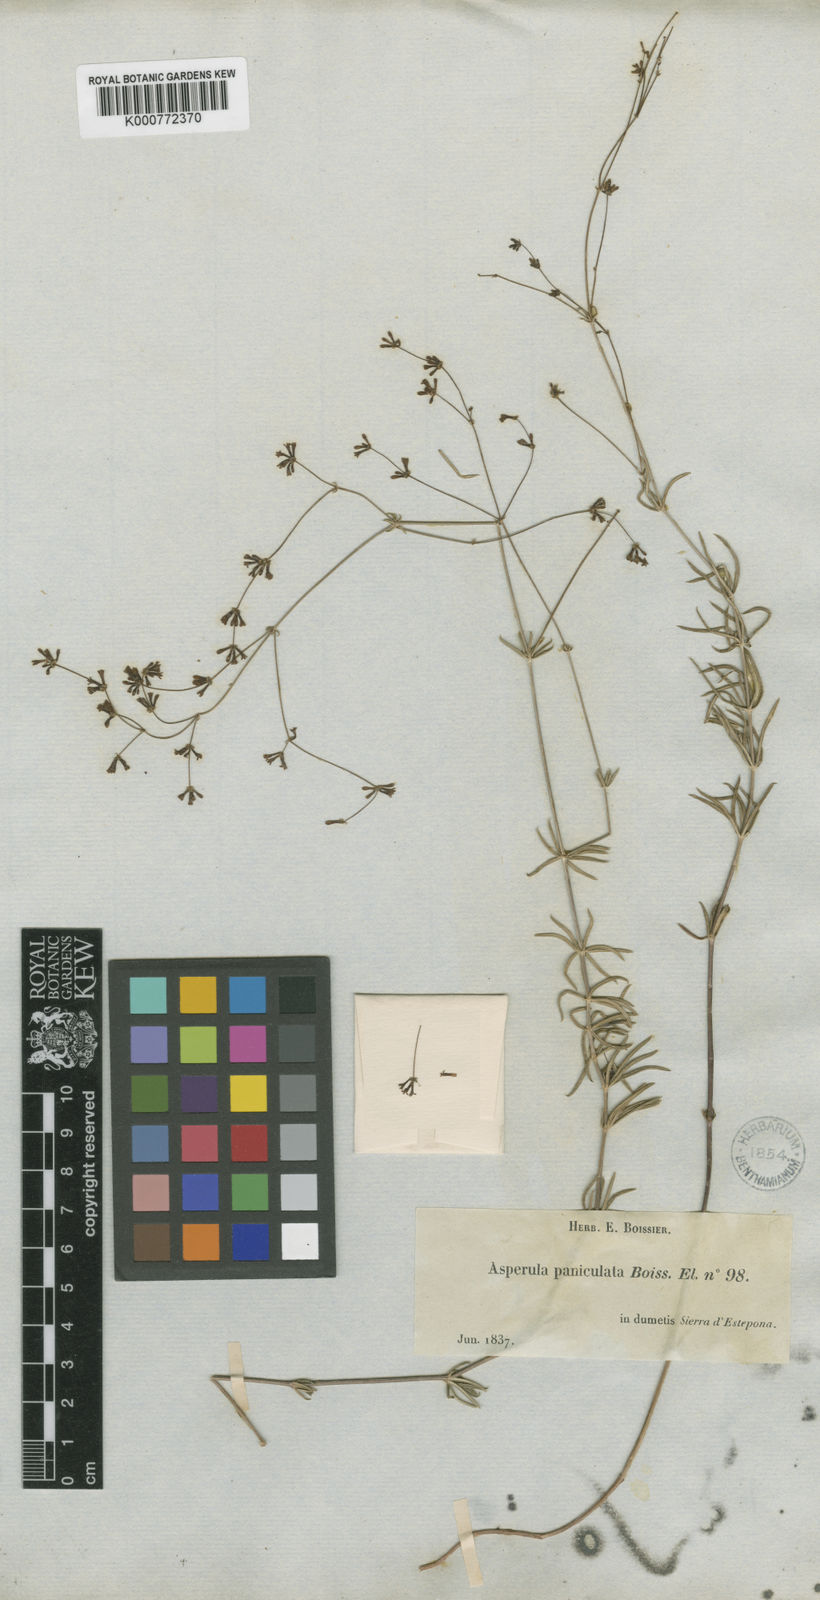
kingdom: Plantae
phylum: Tracheophyta
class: Magnoliopsida
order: Gentianales
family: Rubiaceae
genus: Galium
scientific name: Galium
